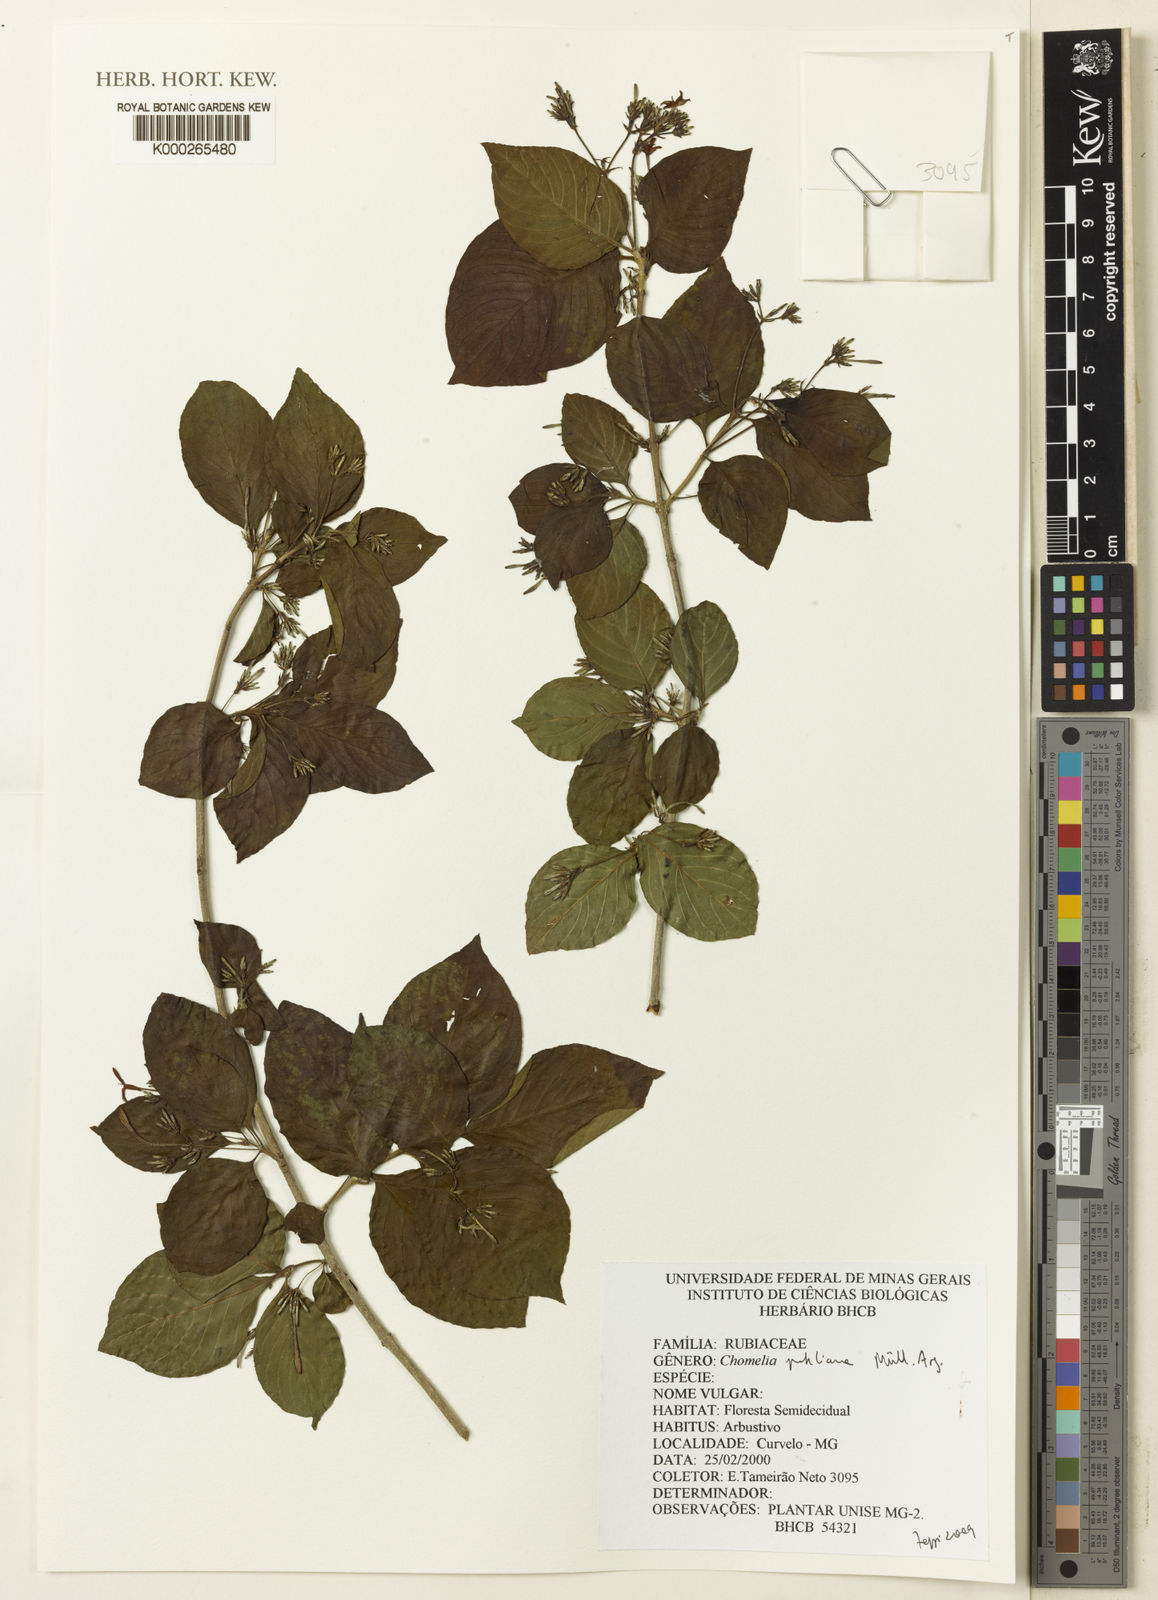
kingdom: Plantae
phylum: Tracheophyta
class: Magnoliopsida
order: Gentianales
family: Rubiaceae
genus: Chomelia
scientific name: Chomelia
